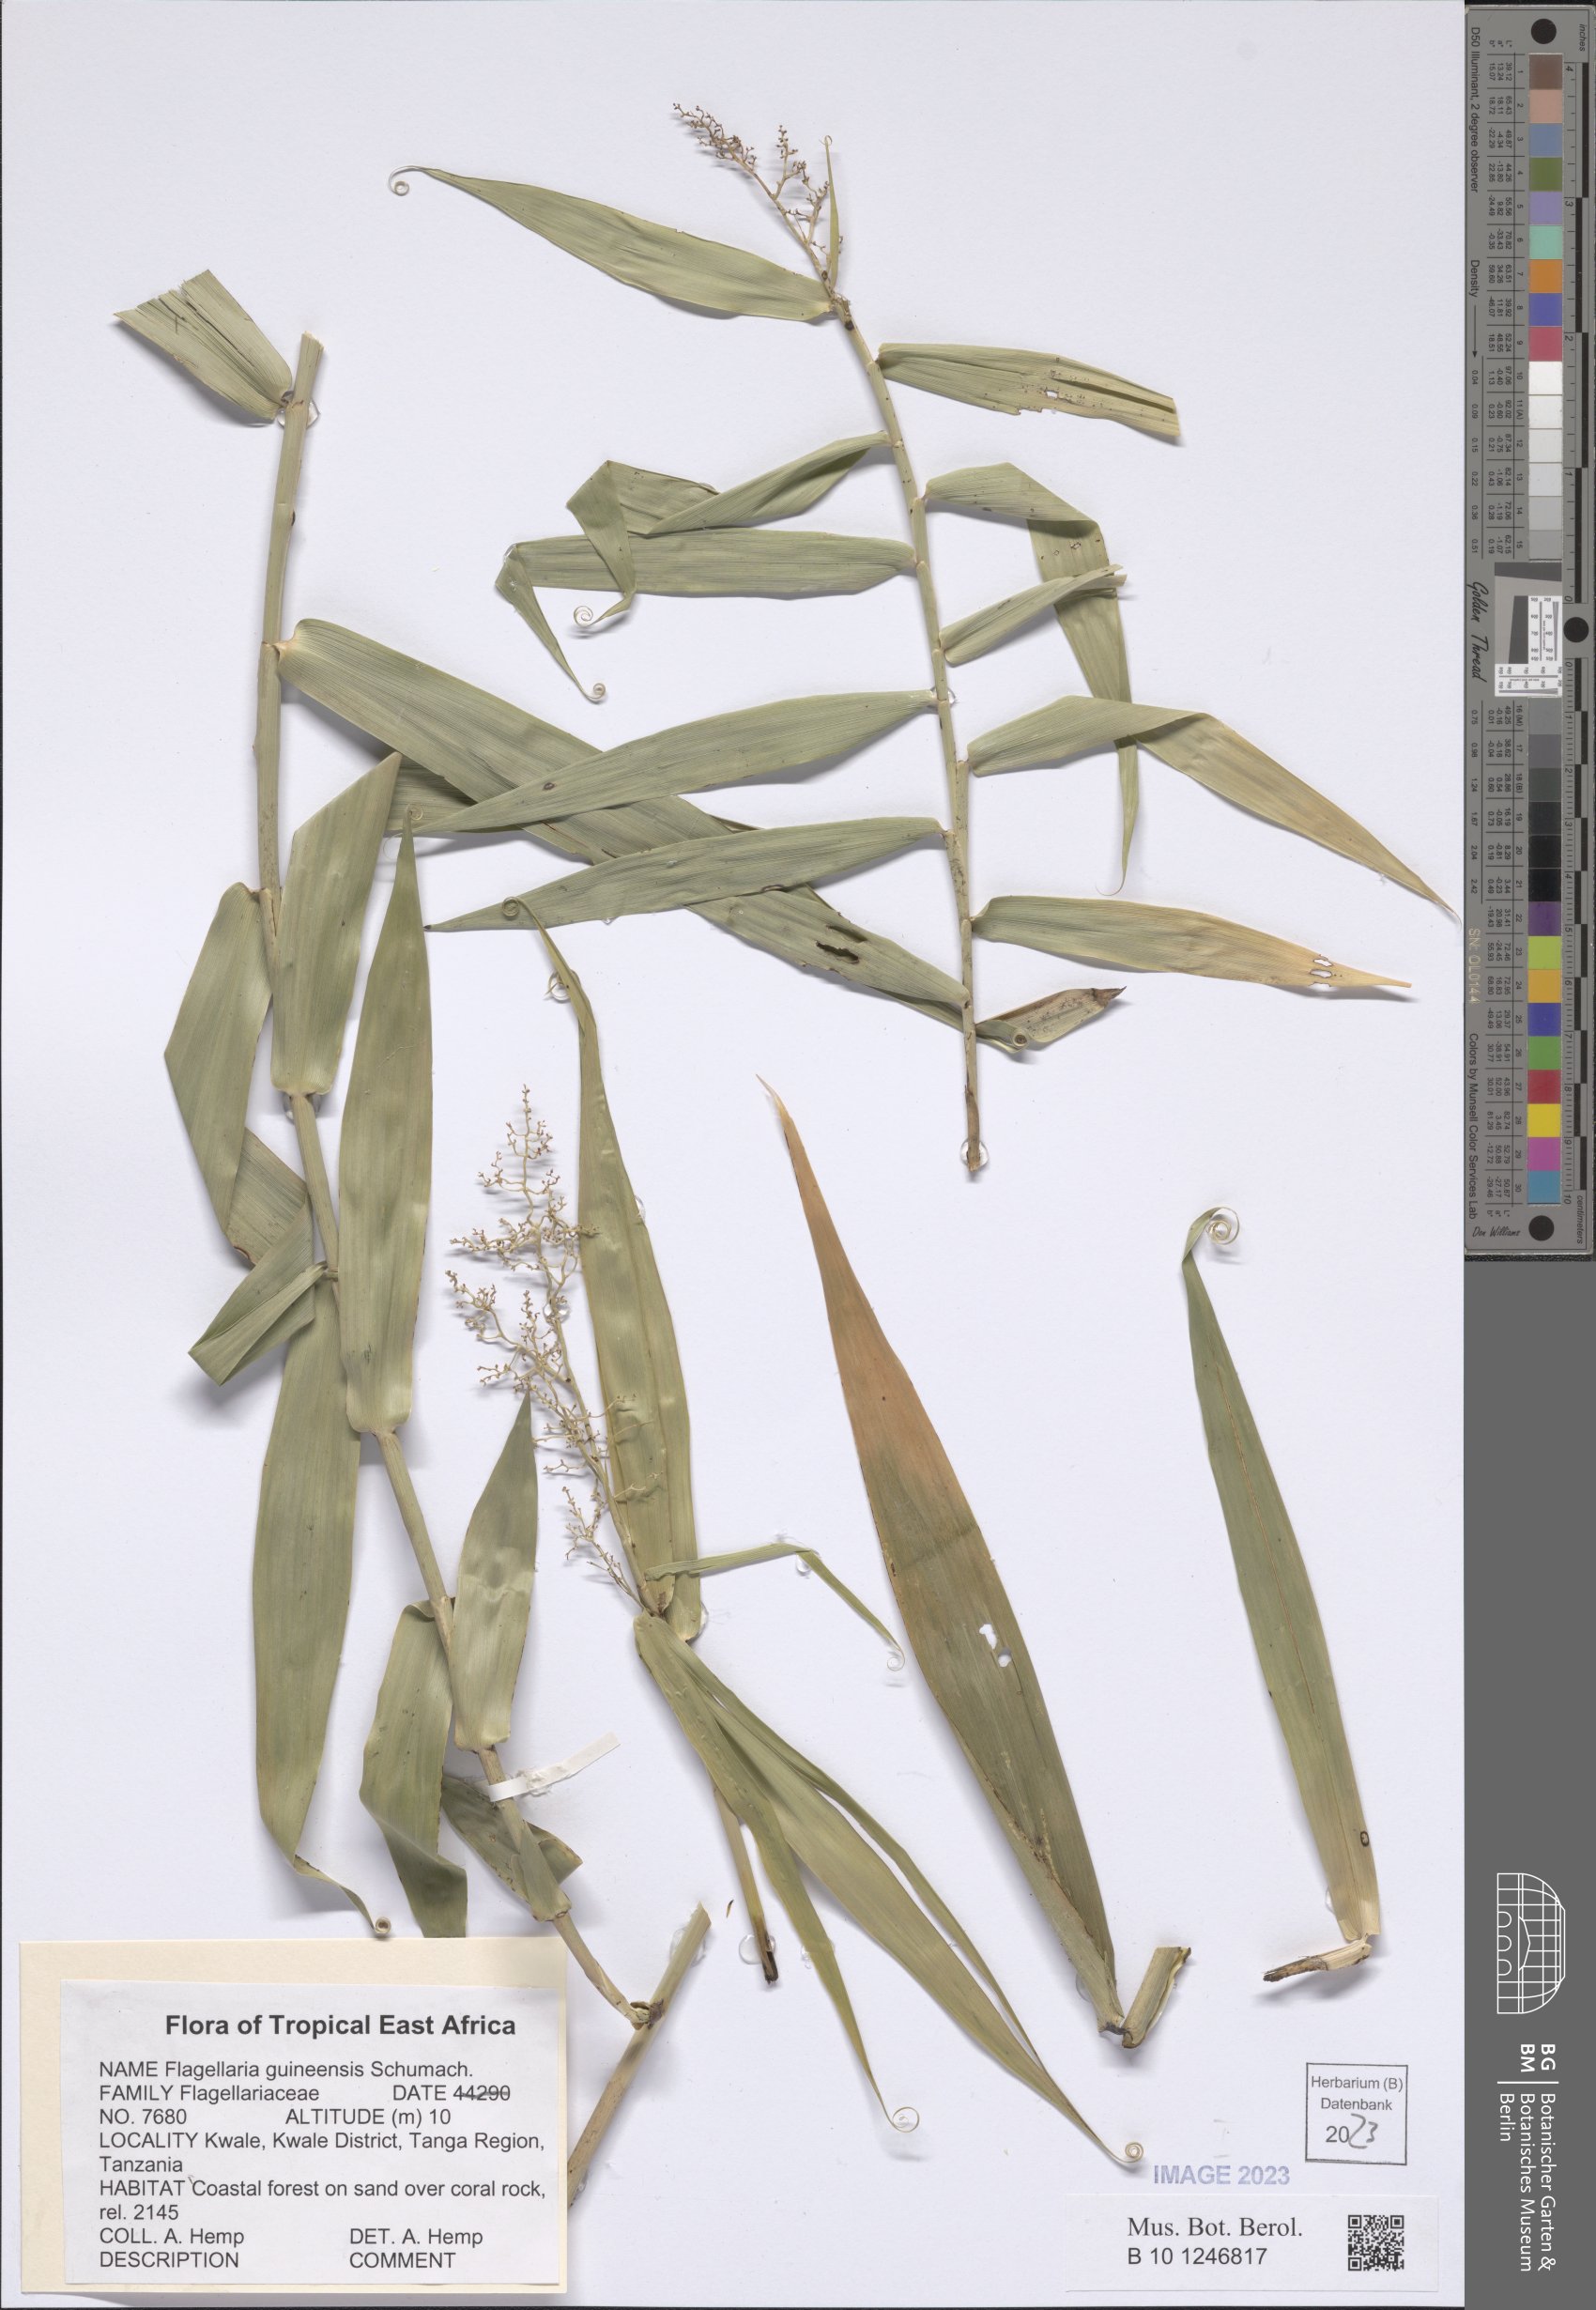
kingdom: Plantae
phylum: Tracheophyta
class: Liliopsida
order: Poales
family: Flagellariaceae
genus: Flagellaria
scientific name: Flagellaria guineensis
